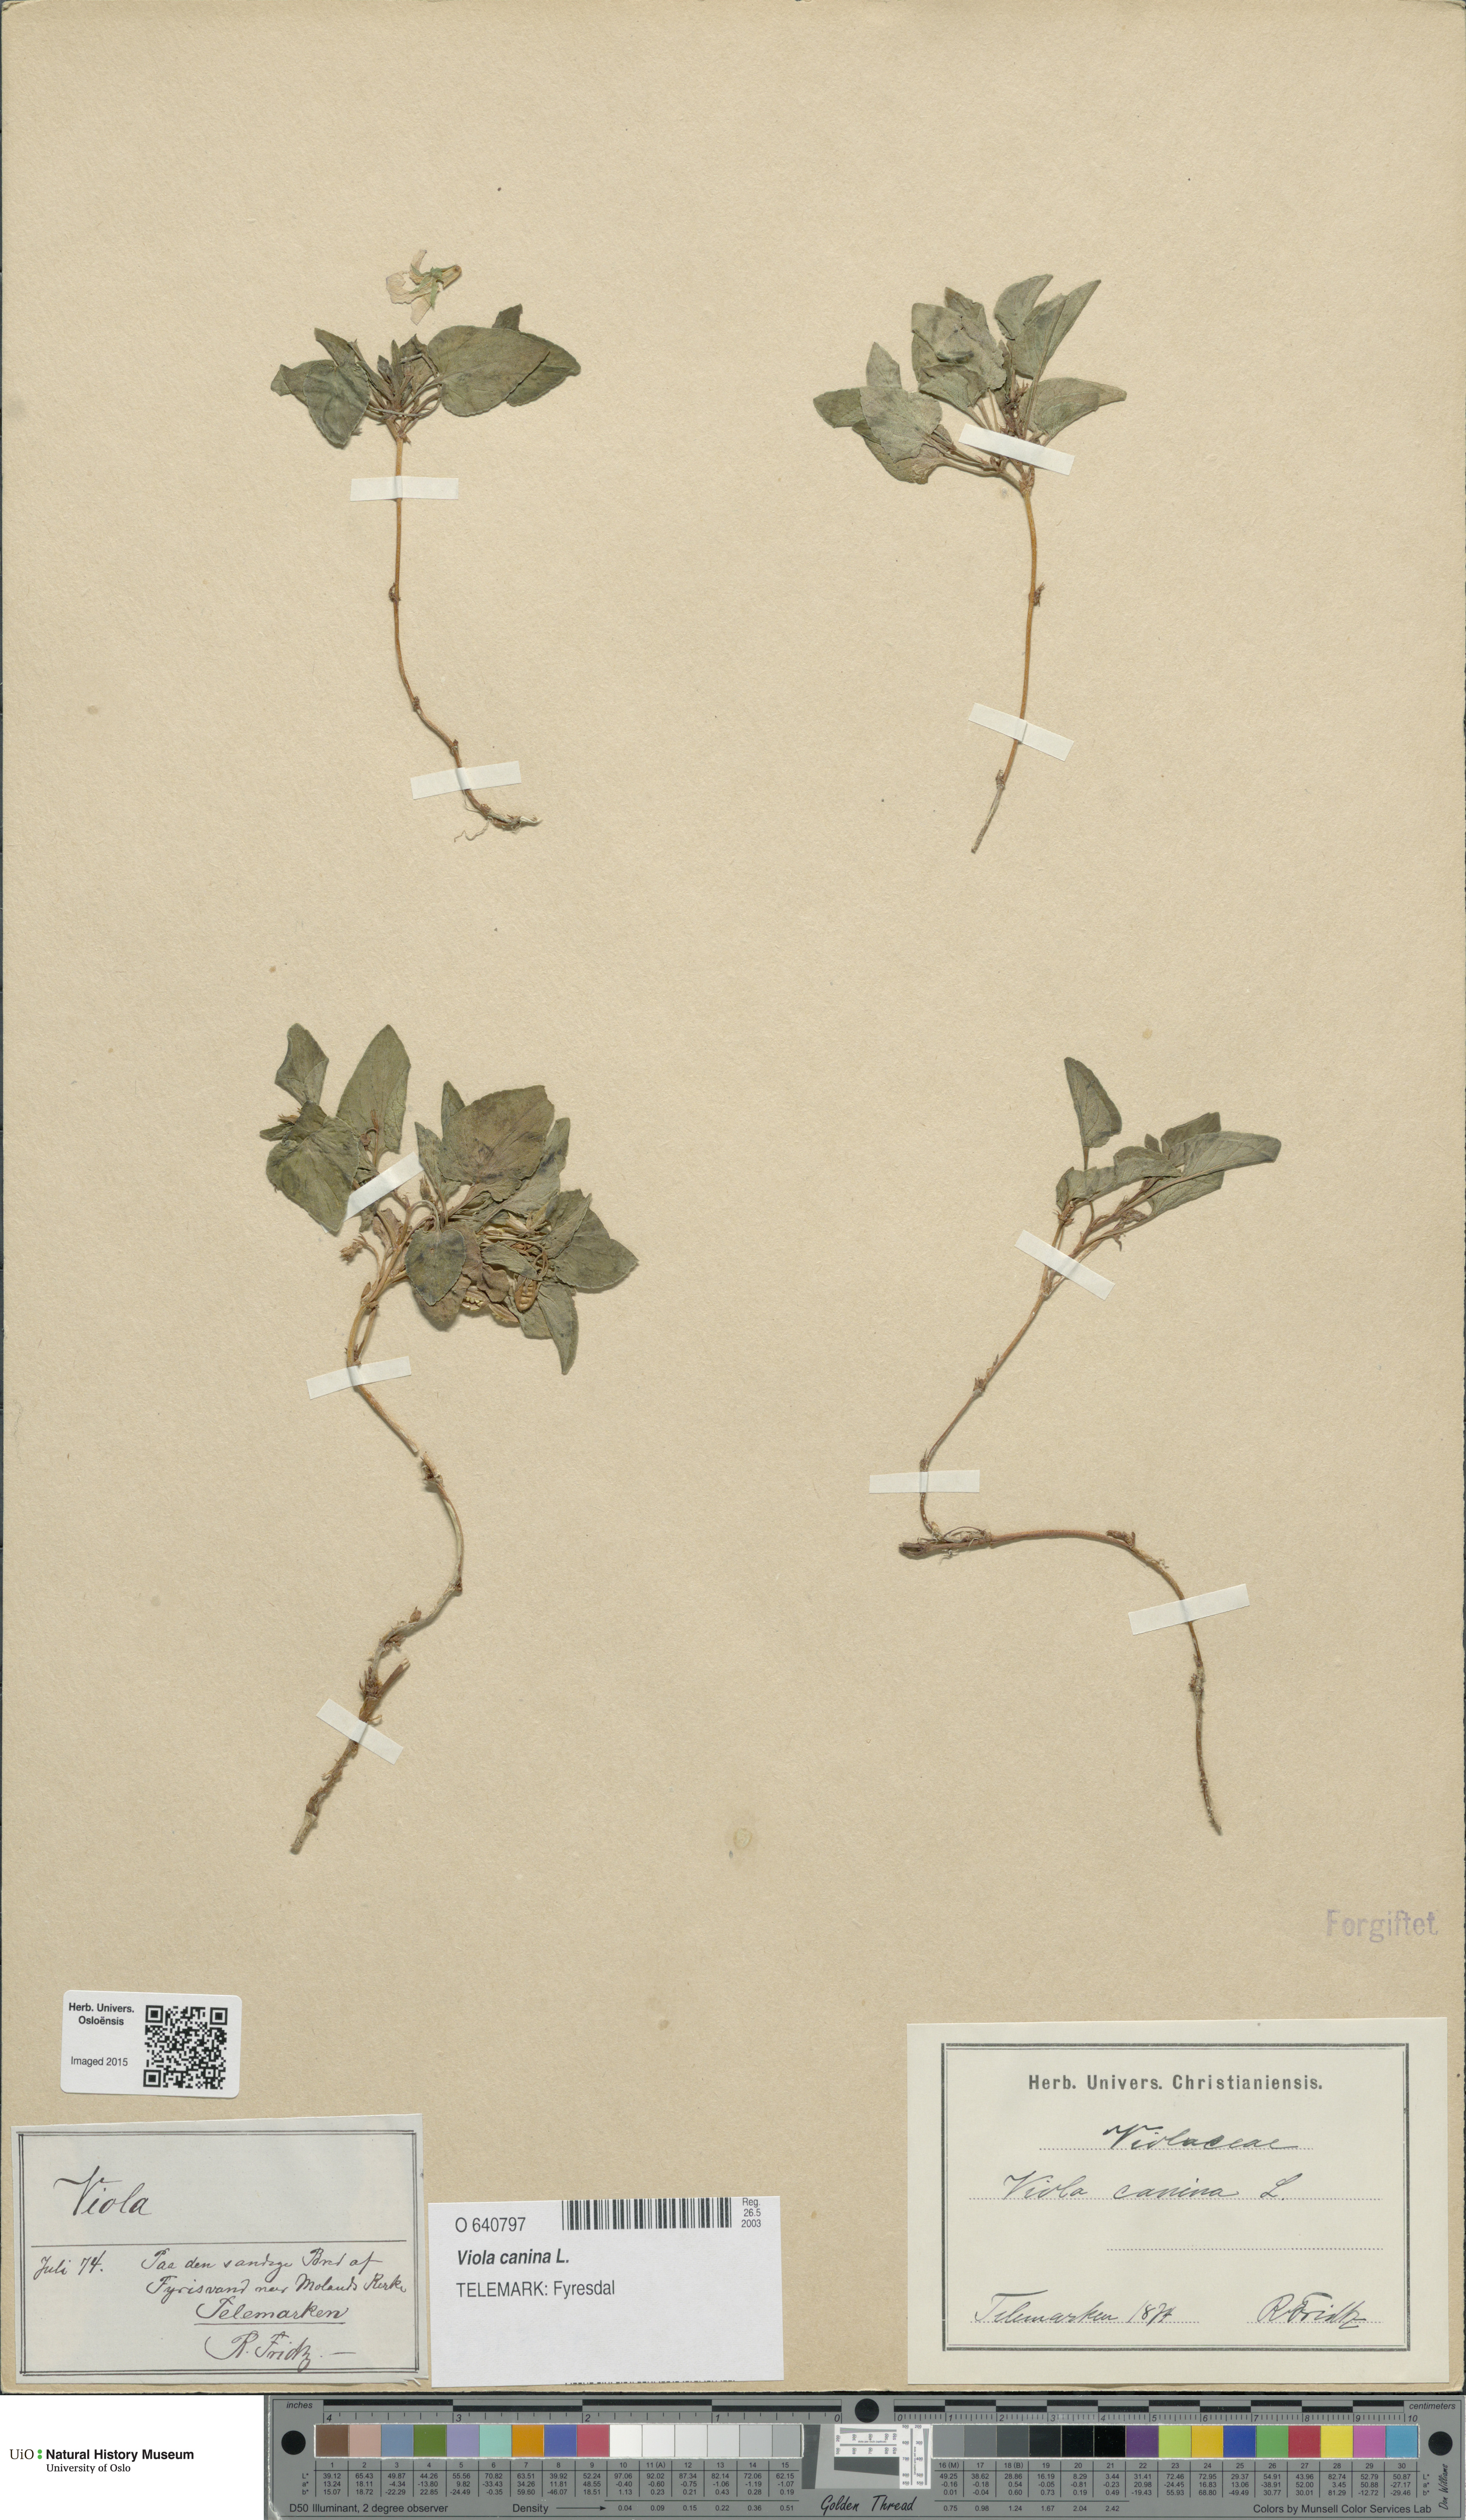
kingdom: Plantae
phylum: Tracheophyta
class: Magnoliopsida
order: Malpighiales
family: Violaceae
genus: Viola
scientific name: Viola canina
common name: Heath dog-violet
